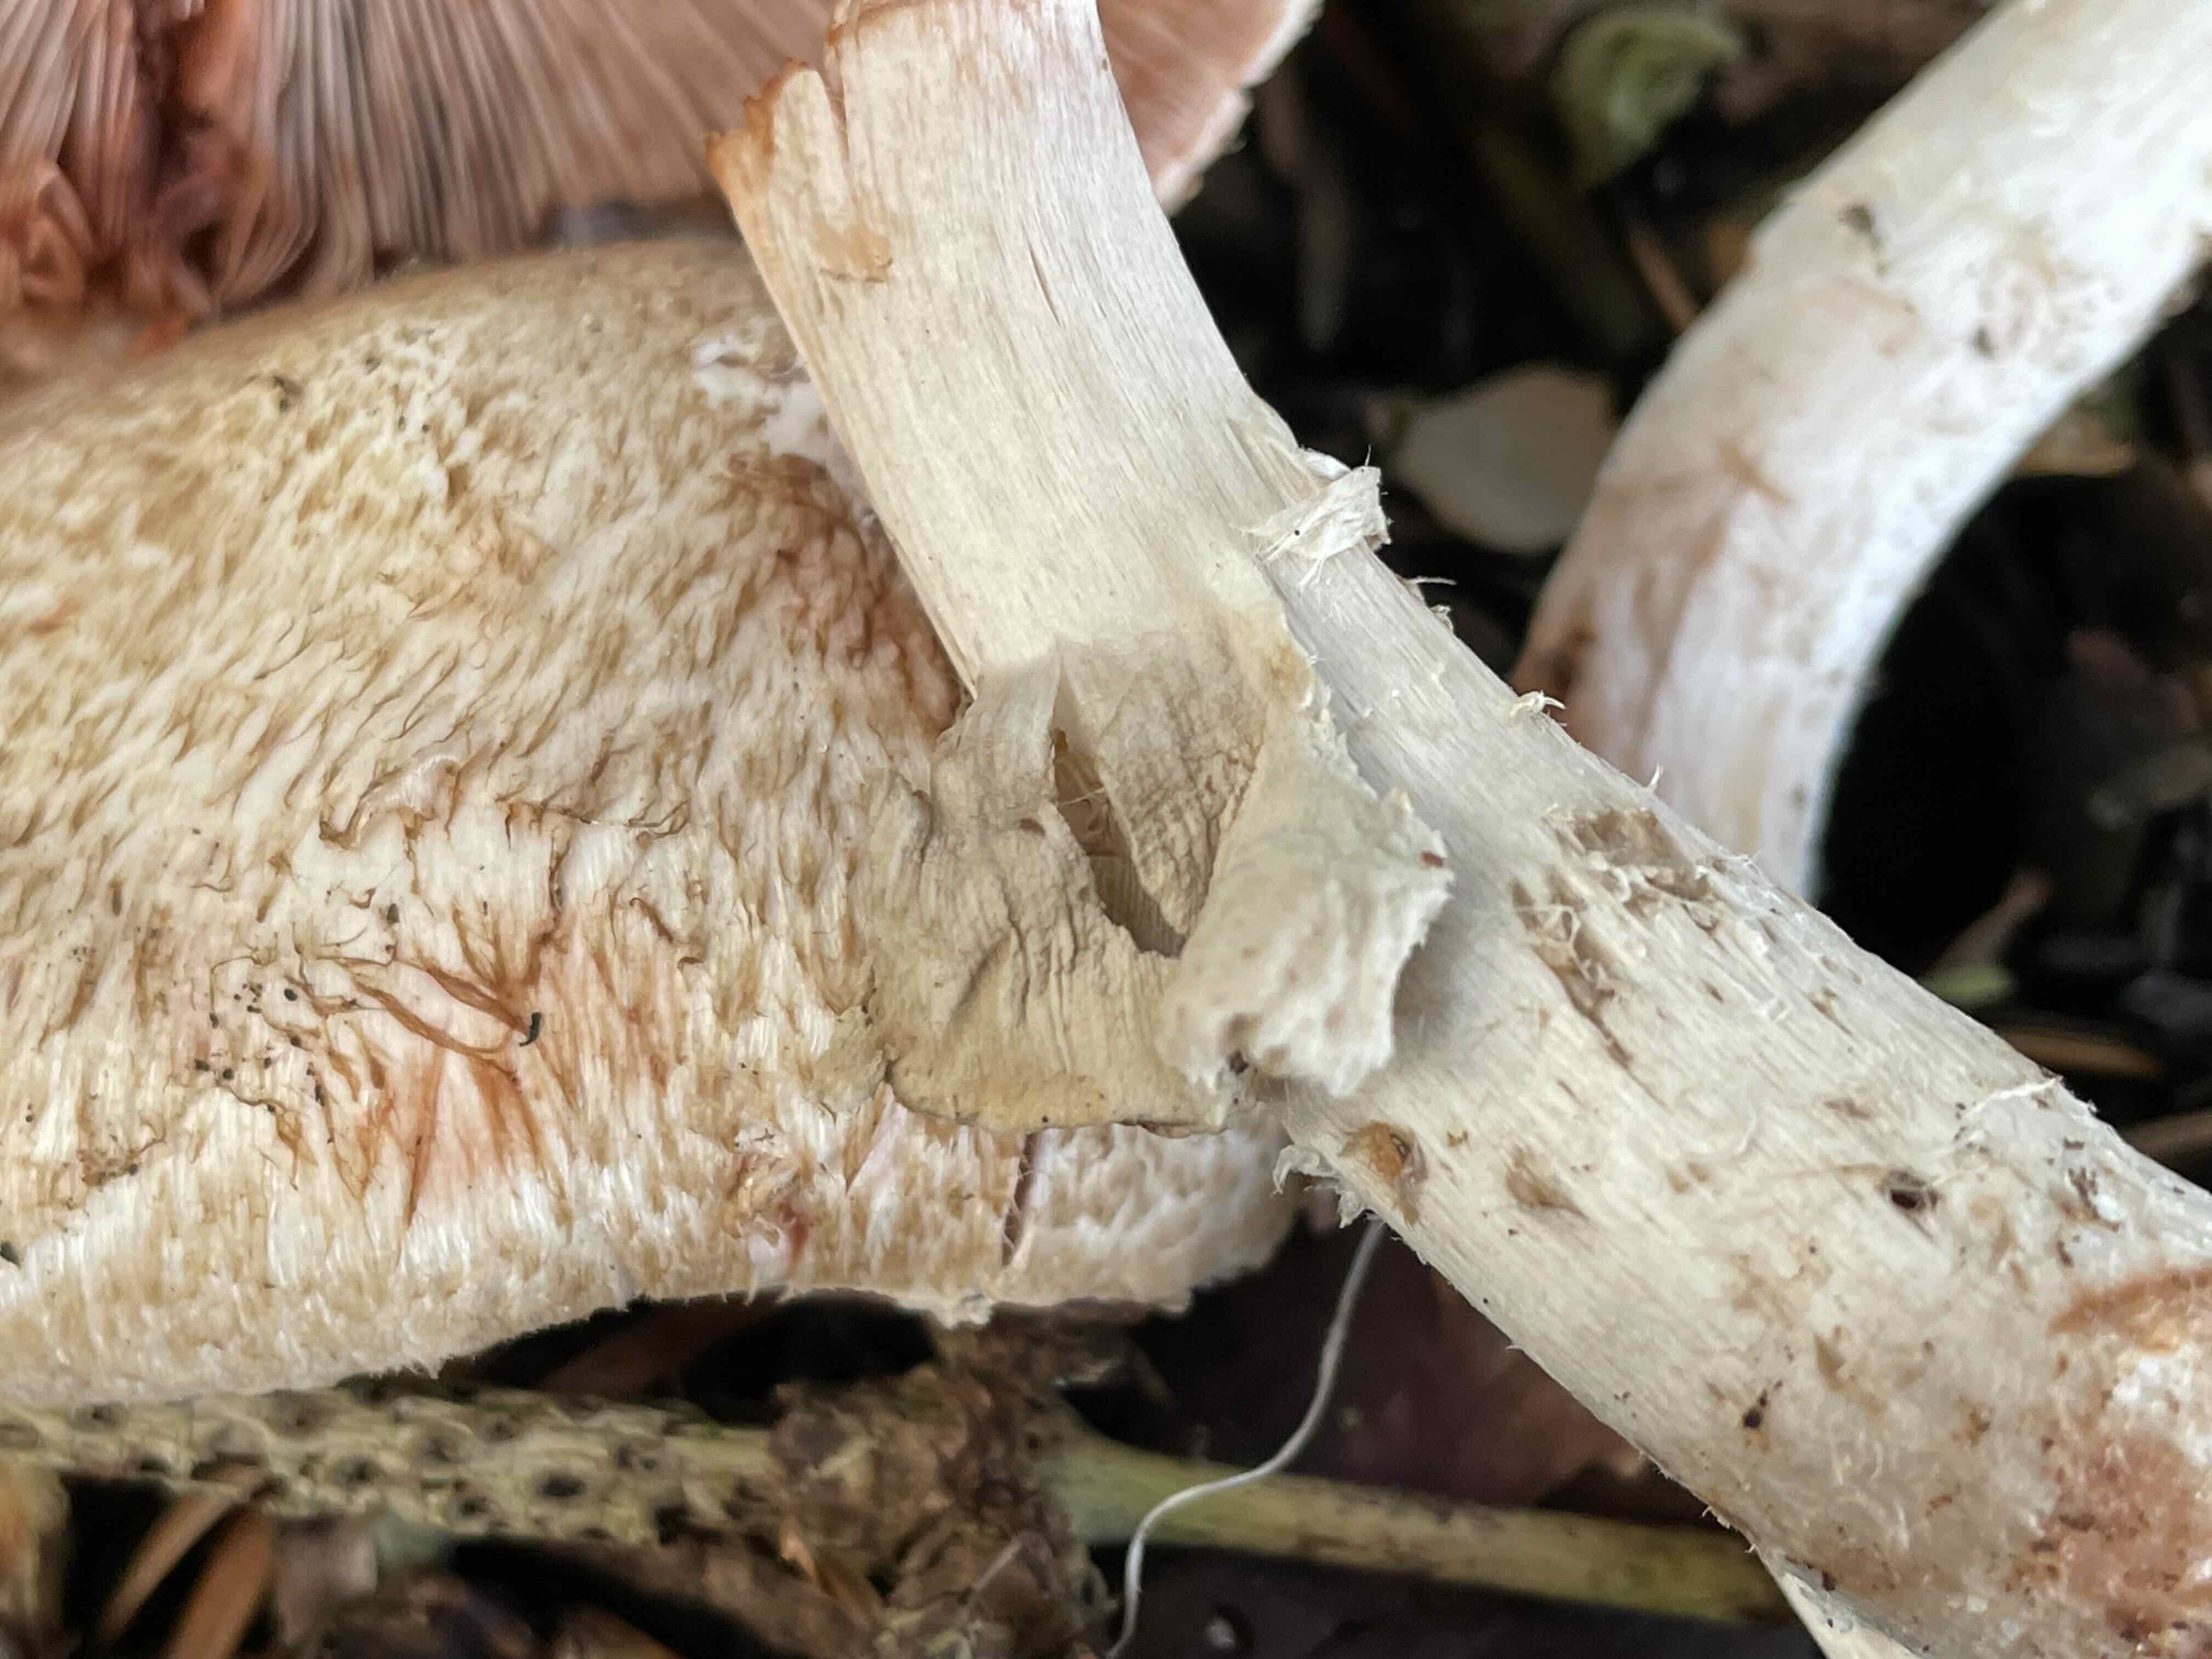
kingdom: Fungi
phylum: Basidiomycota
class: Agaricomycetes
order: Agaricales
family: Agaricaceae
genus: Agaricus
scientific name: Agaricus sylvaticus
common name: lille blod-champignon
